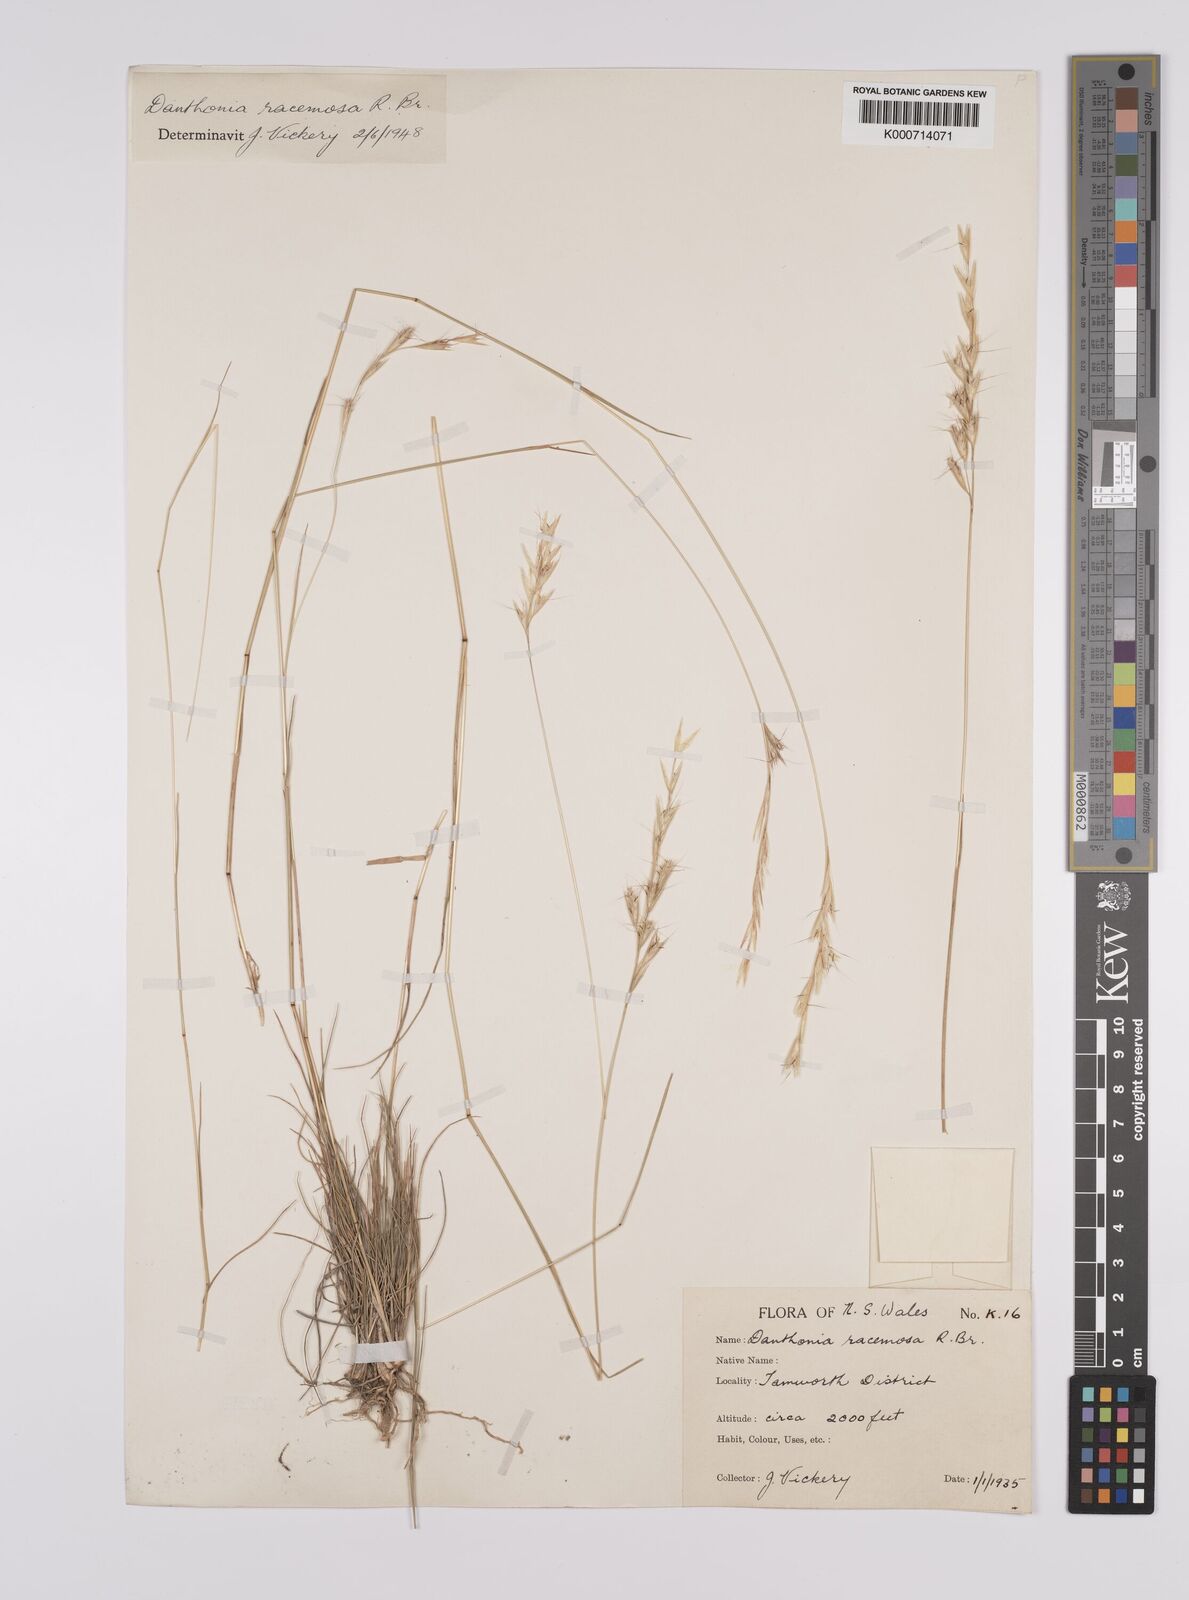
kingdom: Plantae
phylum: Tracheophyta
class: Liliopsida
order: Poales
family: Poaceae
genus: Rytidosperma
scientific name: Rytidosperma racemosum
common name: Wallaby-grass
